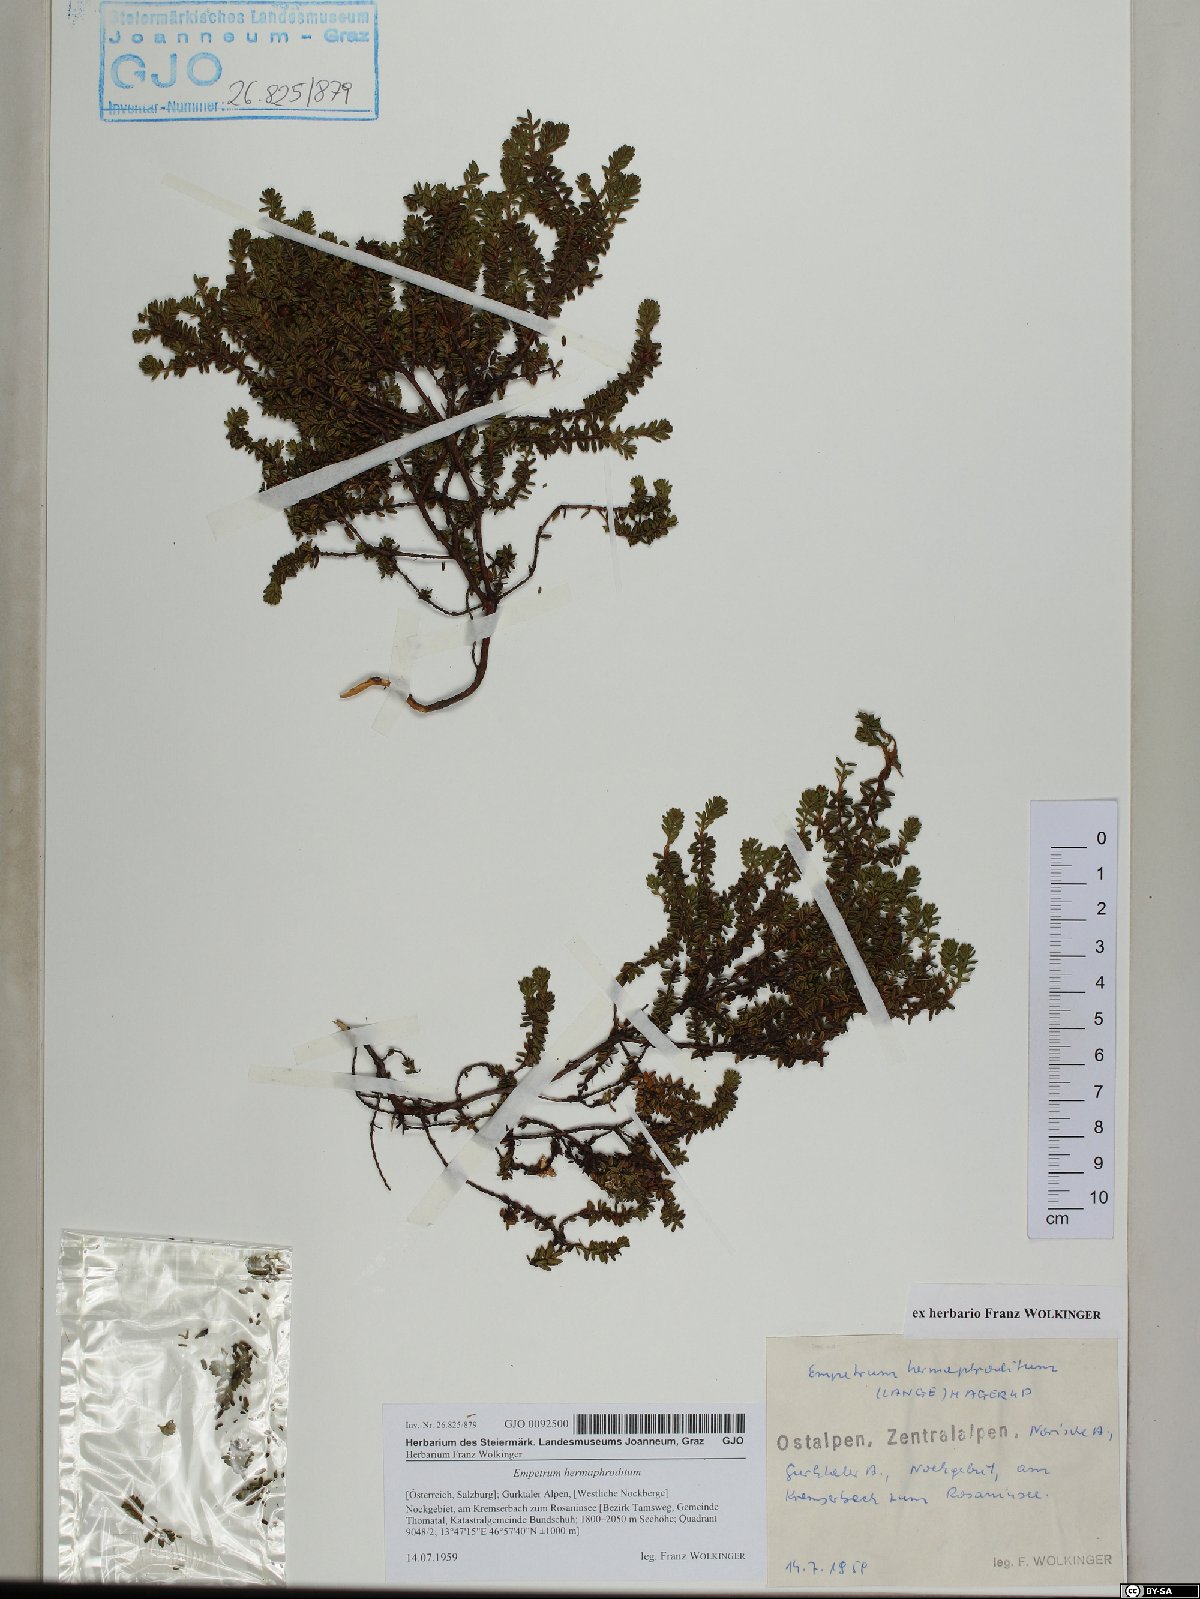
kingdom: Plantae
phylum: Tracheophyta
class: Magnoliopsida
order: Ericales
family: Ericaceae
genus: Empetrum
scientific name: Empetrum hermaphroditum
